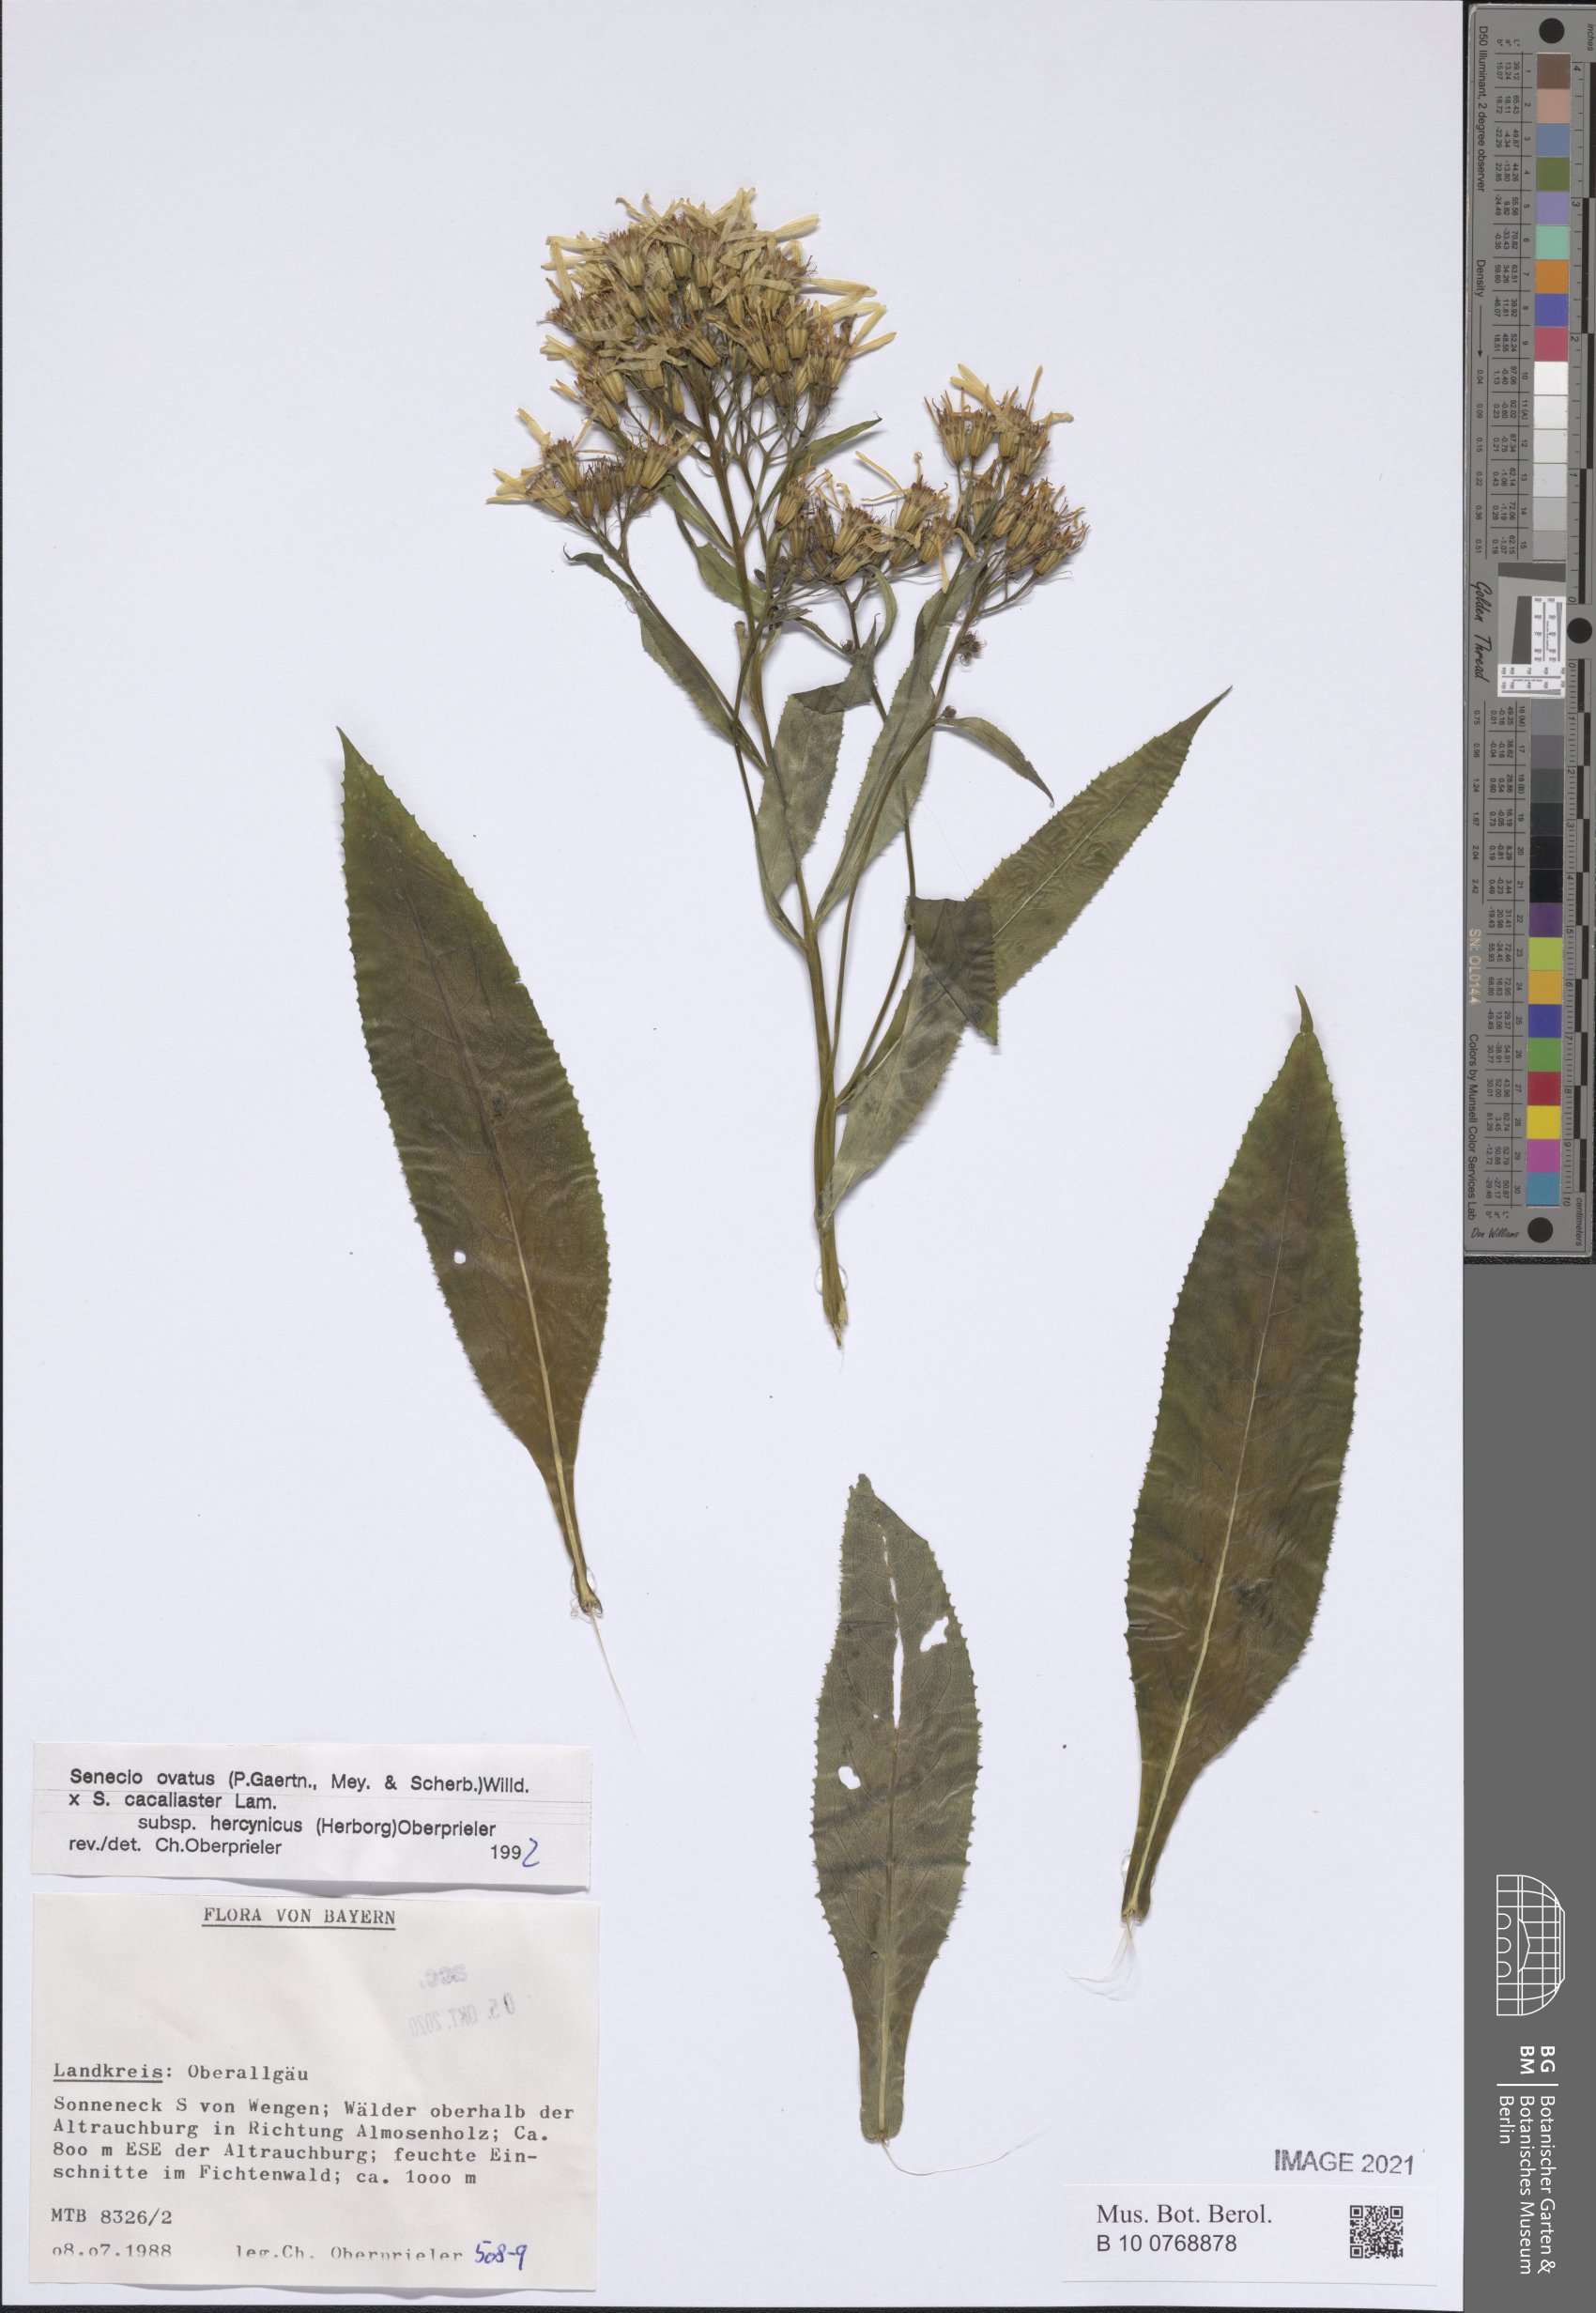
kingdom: Plantae
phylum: Tracheophyta
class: Magnoliopsida
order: Asterales
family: Asteraceae
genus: Senecio
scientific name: Senecio ovatus
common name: Wood ragwort
